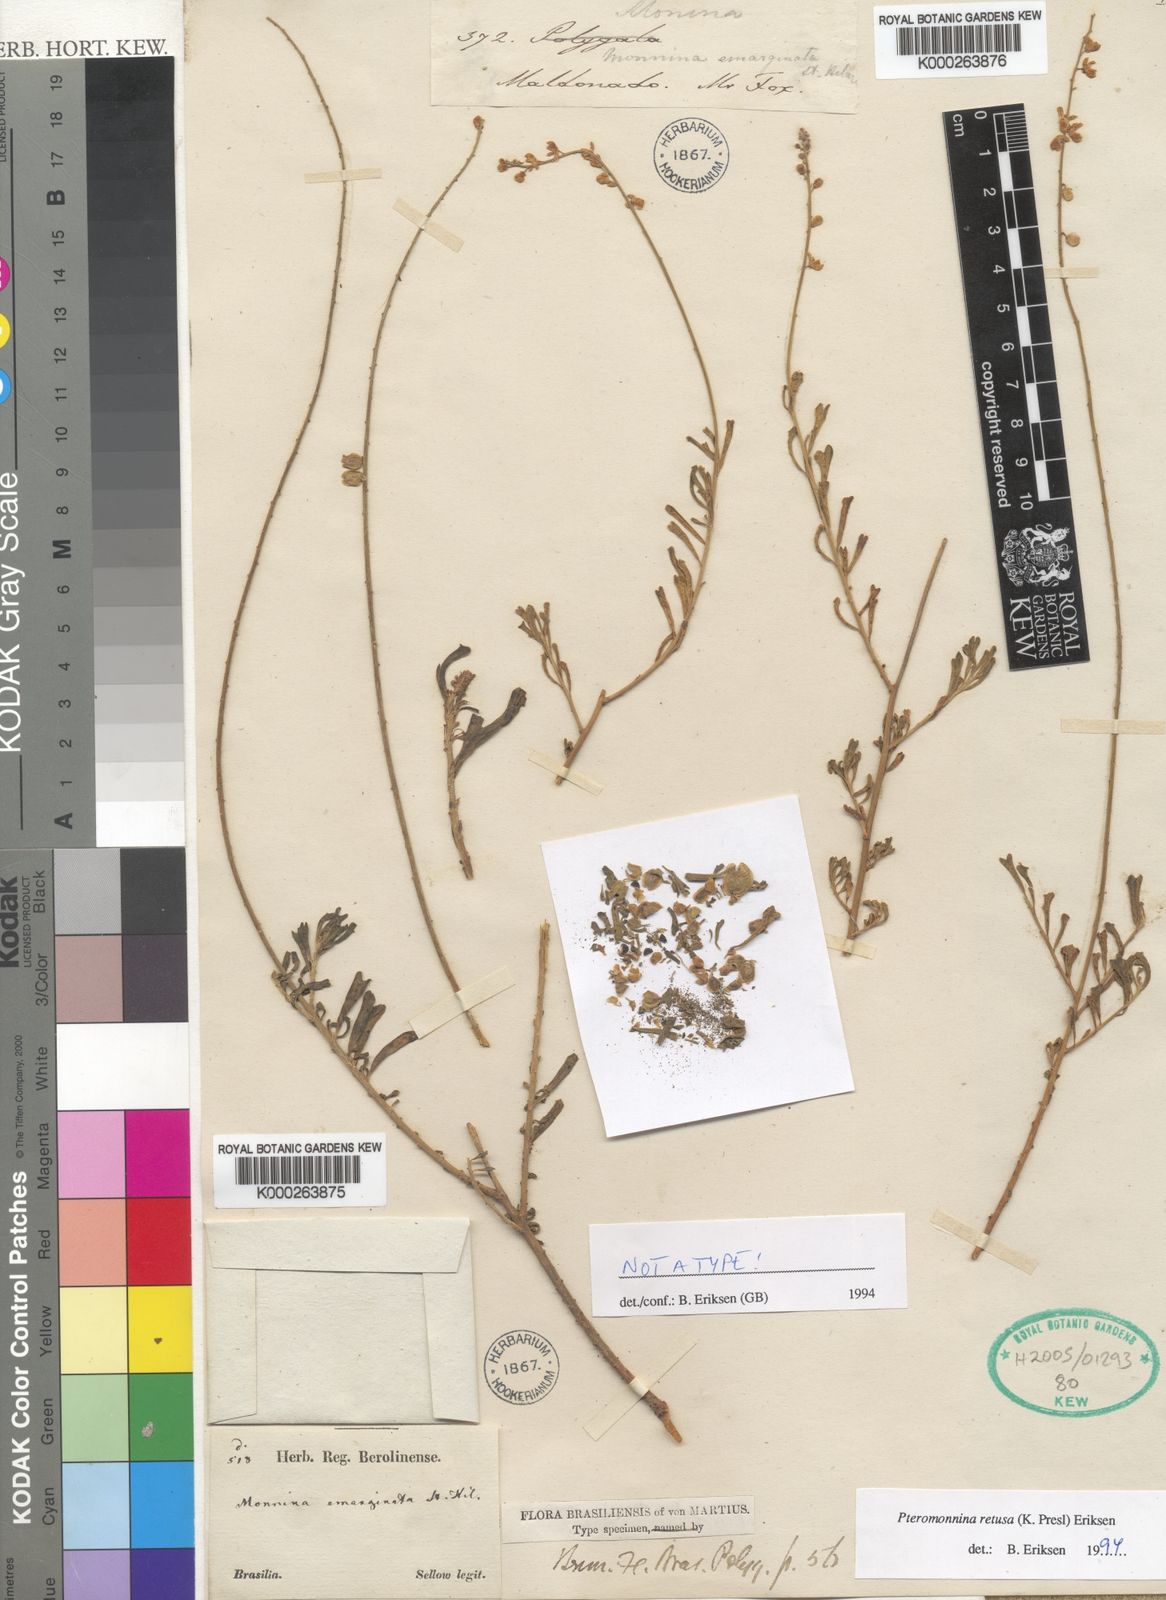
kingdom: Plantae
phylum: Tracheophyta
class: Magnoliopsida
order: Fabales
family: Polygalaceae
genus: Monnina
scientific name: Monnina cuneata
